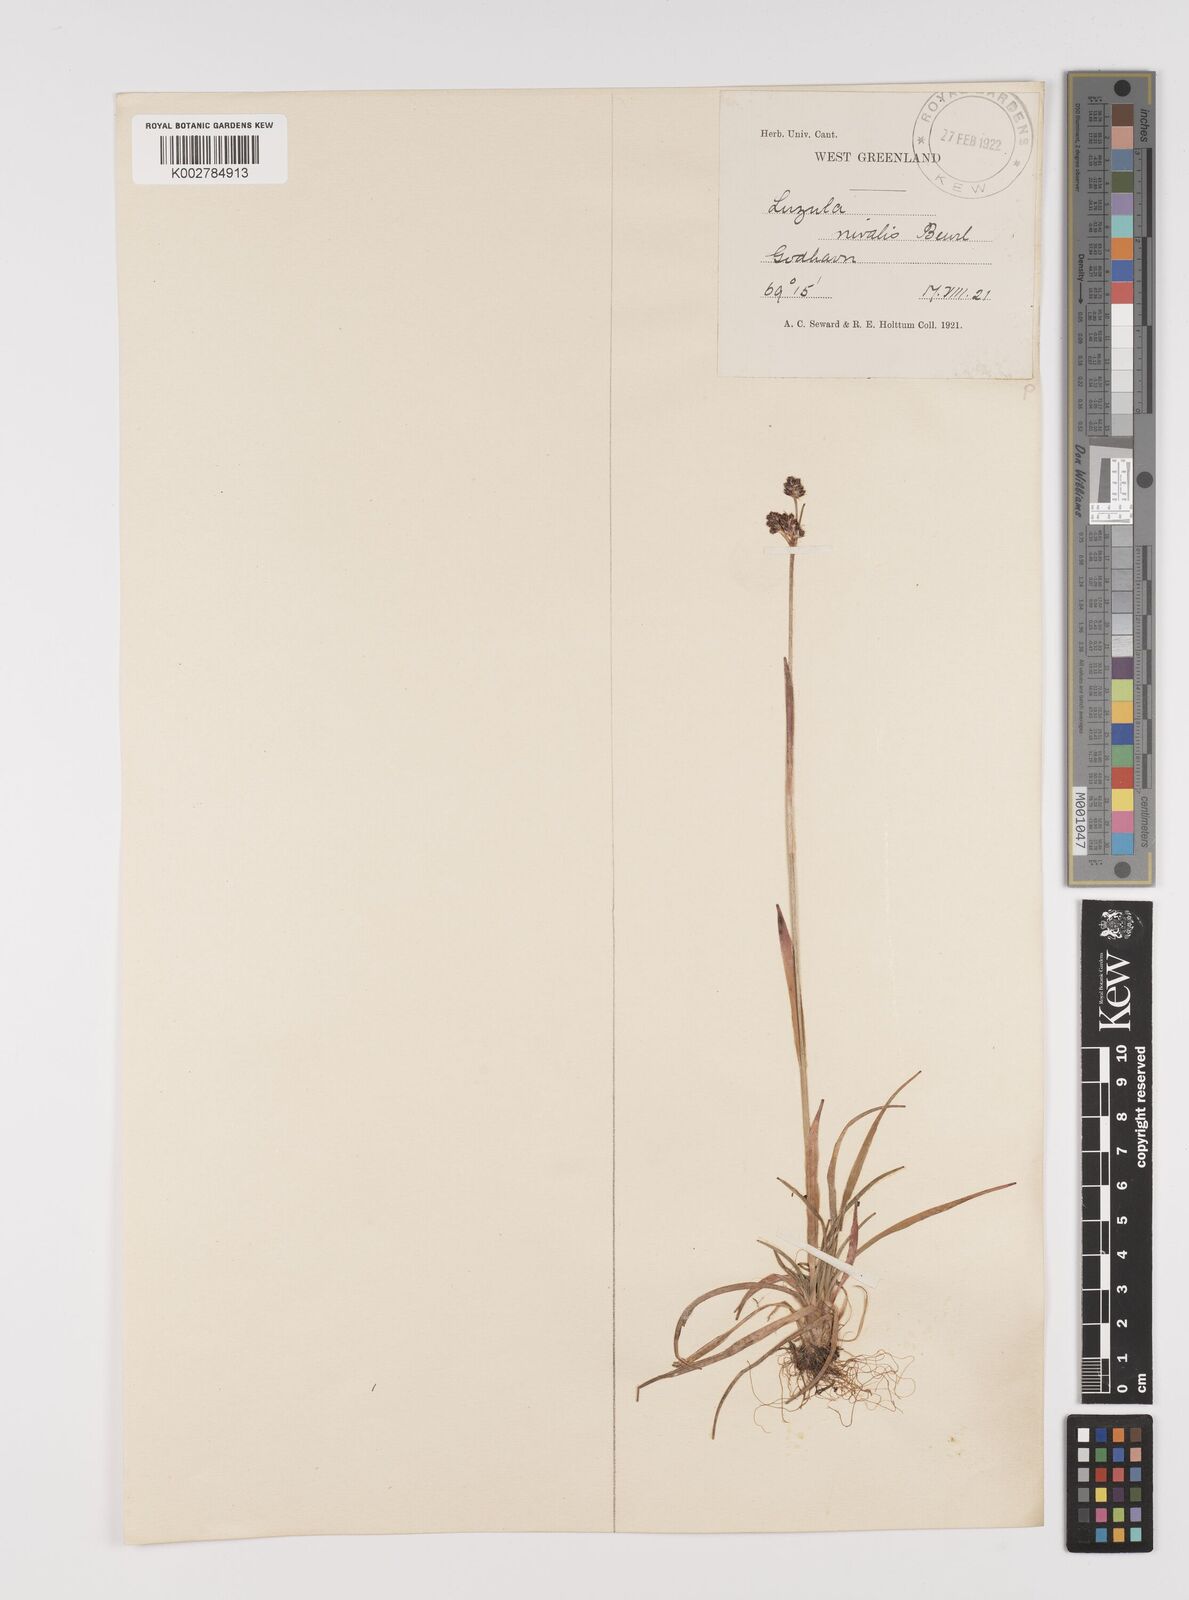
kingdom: Plantae
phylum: Tracheophyta
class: Liliopsida
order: Poales
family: Juncaceae
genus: Luzula
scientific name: Luzula nivalis
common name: Arctic woodrush
